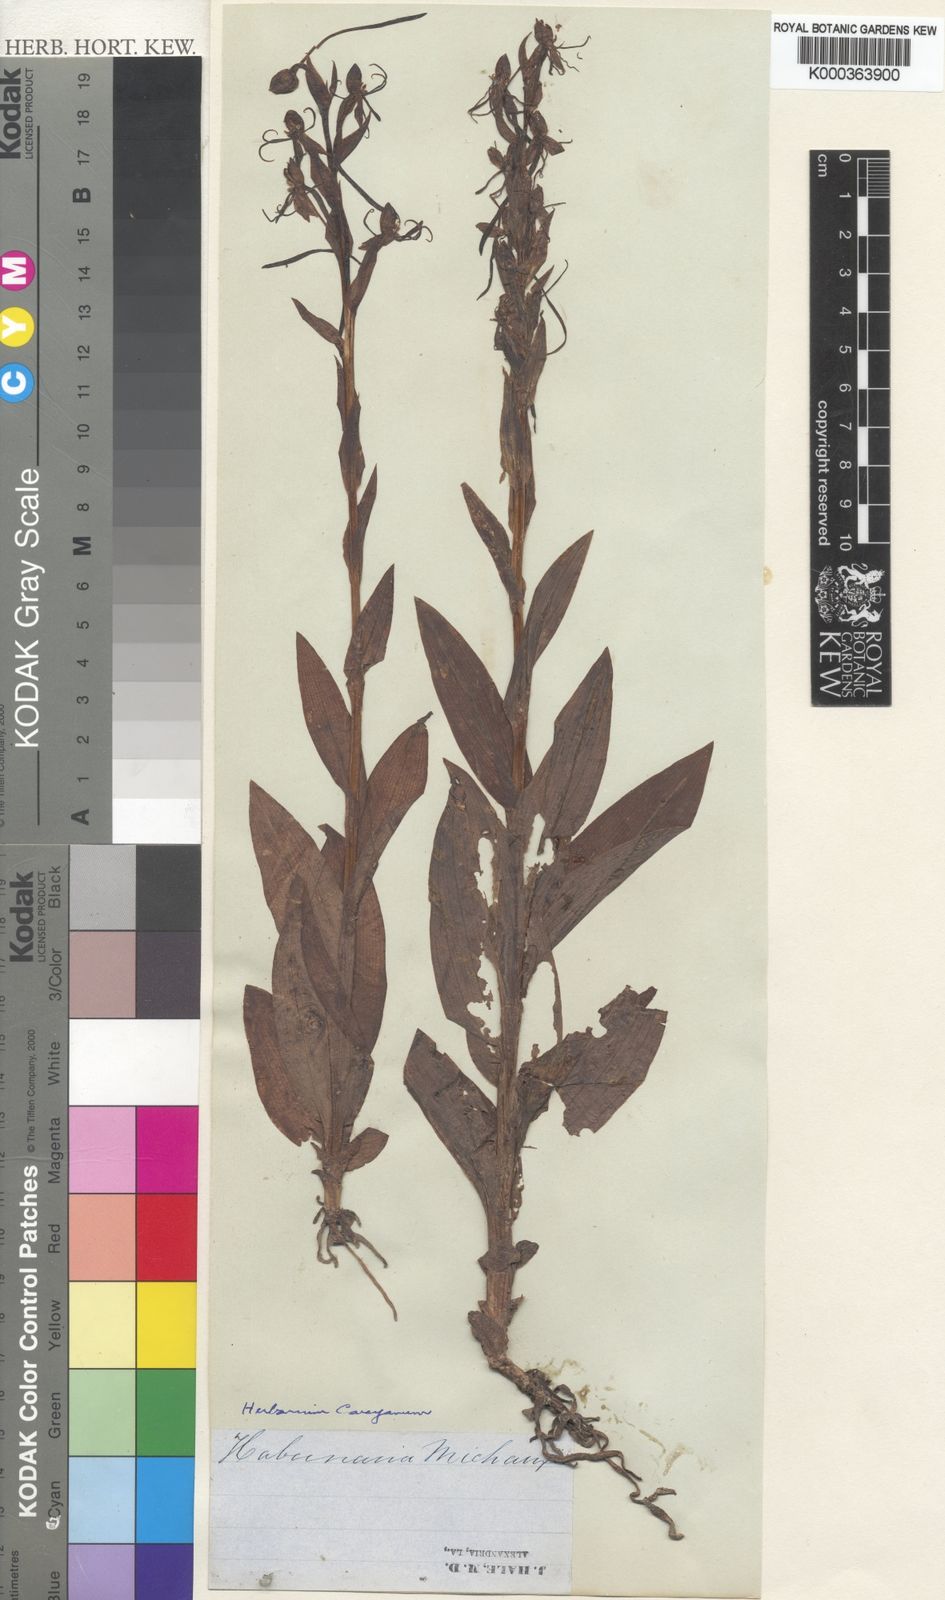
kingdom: Plantae
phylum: Tracheophyta
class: Liliopsida
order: Asparagales
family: Orchidaceae
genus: Habenaria
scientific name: Habenaria
